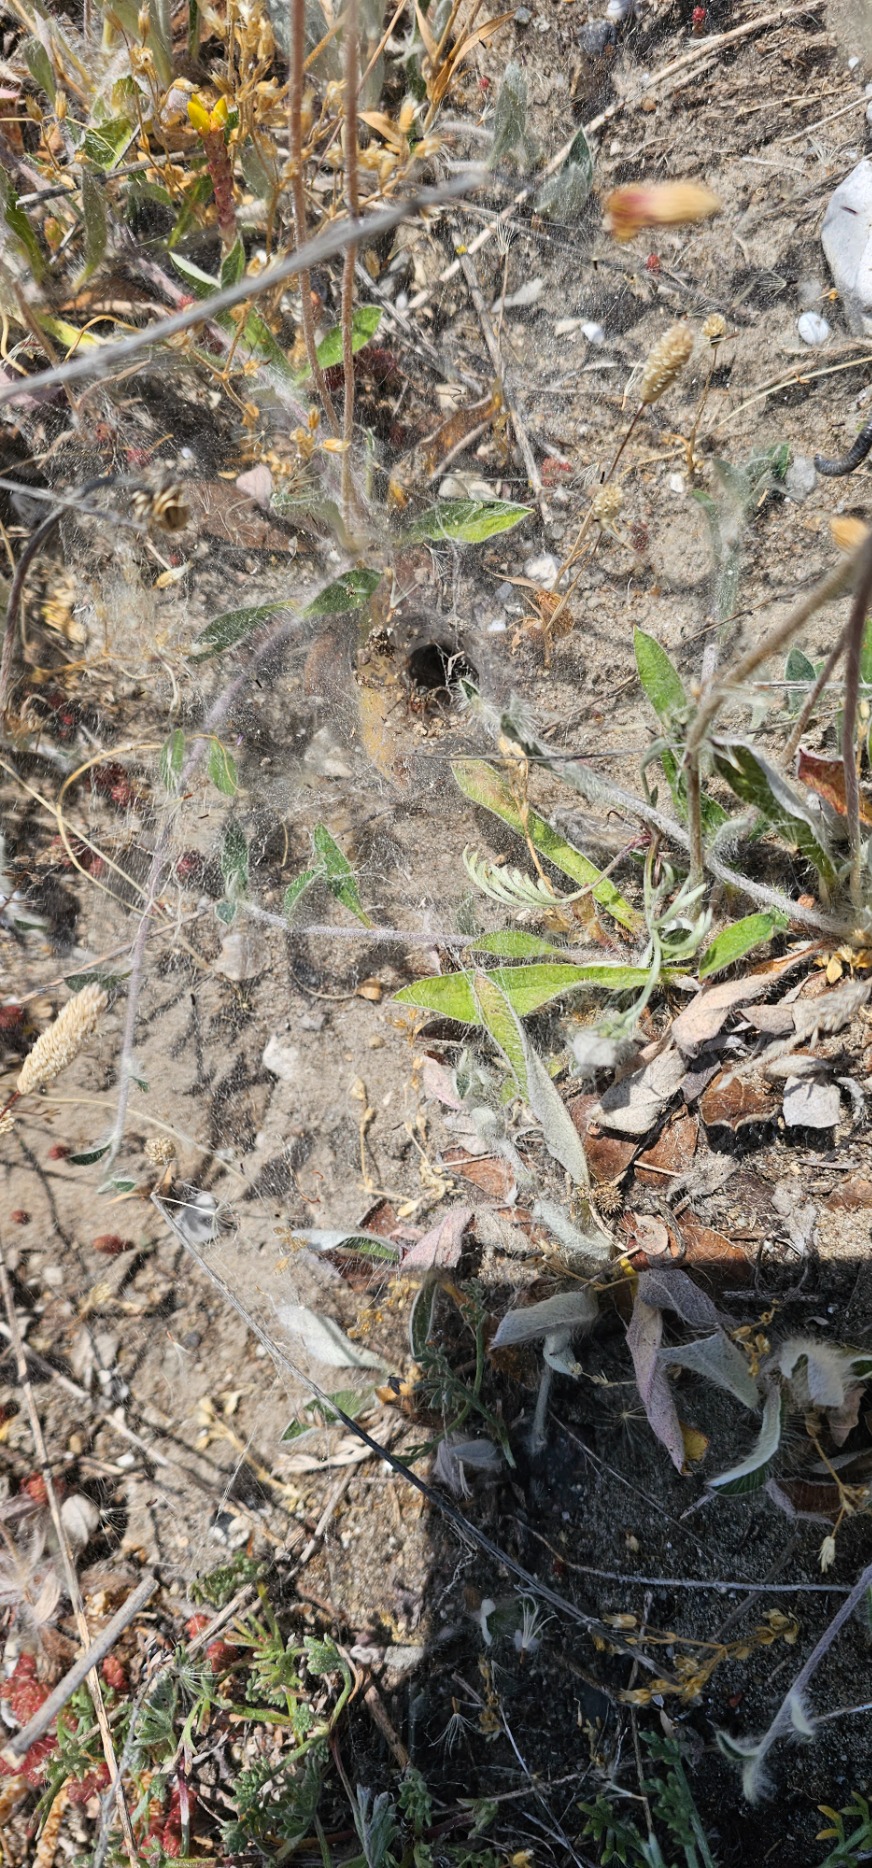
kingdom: Animalia
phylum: Arthropoda
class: Arachnida
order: Araneae
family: Agelenidae
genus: Agelena
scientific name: Agelena labyrinthica
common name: Labyrintedderkop
